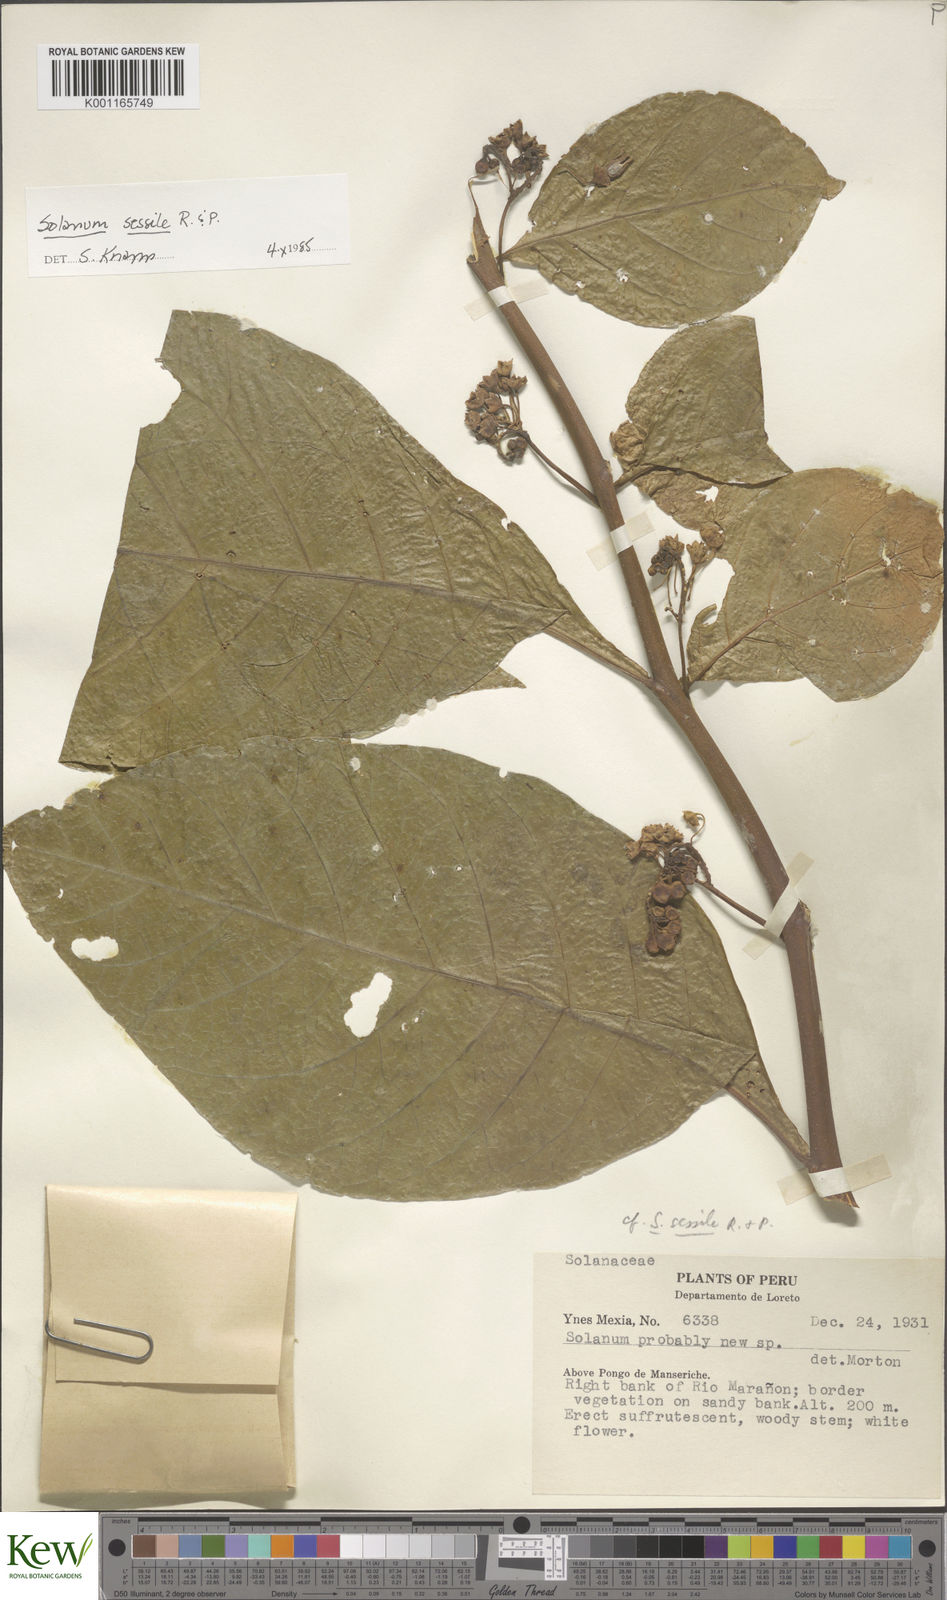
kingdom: Plantae
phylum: Tracheophyta
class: Magnoliopsida
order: Solanales
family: Solanaceae
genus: Solanum
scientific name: Solanum sessile
